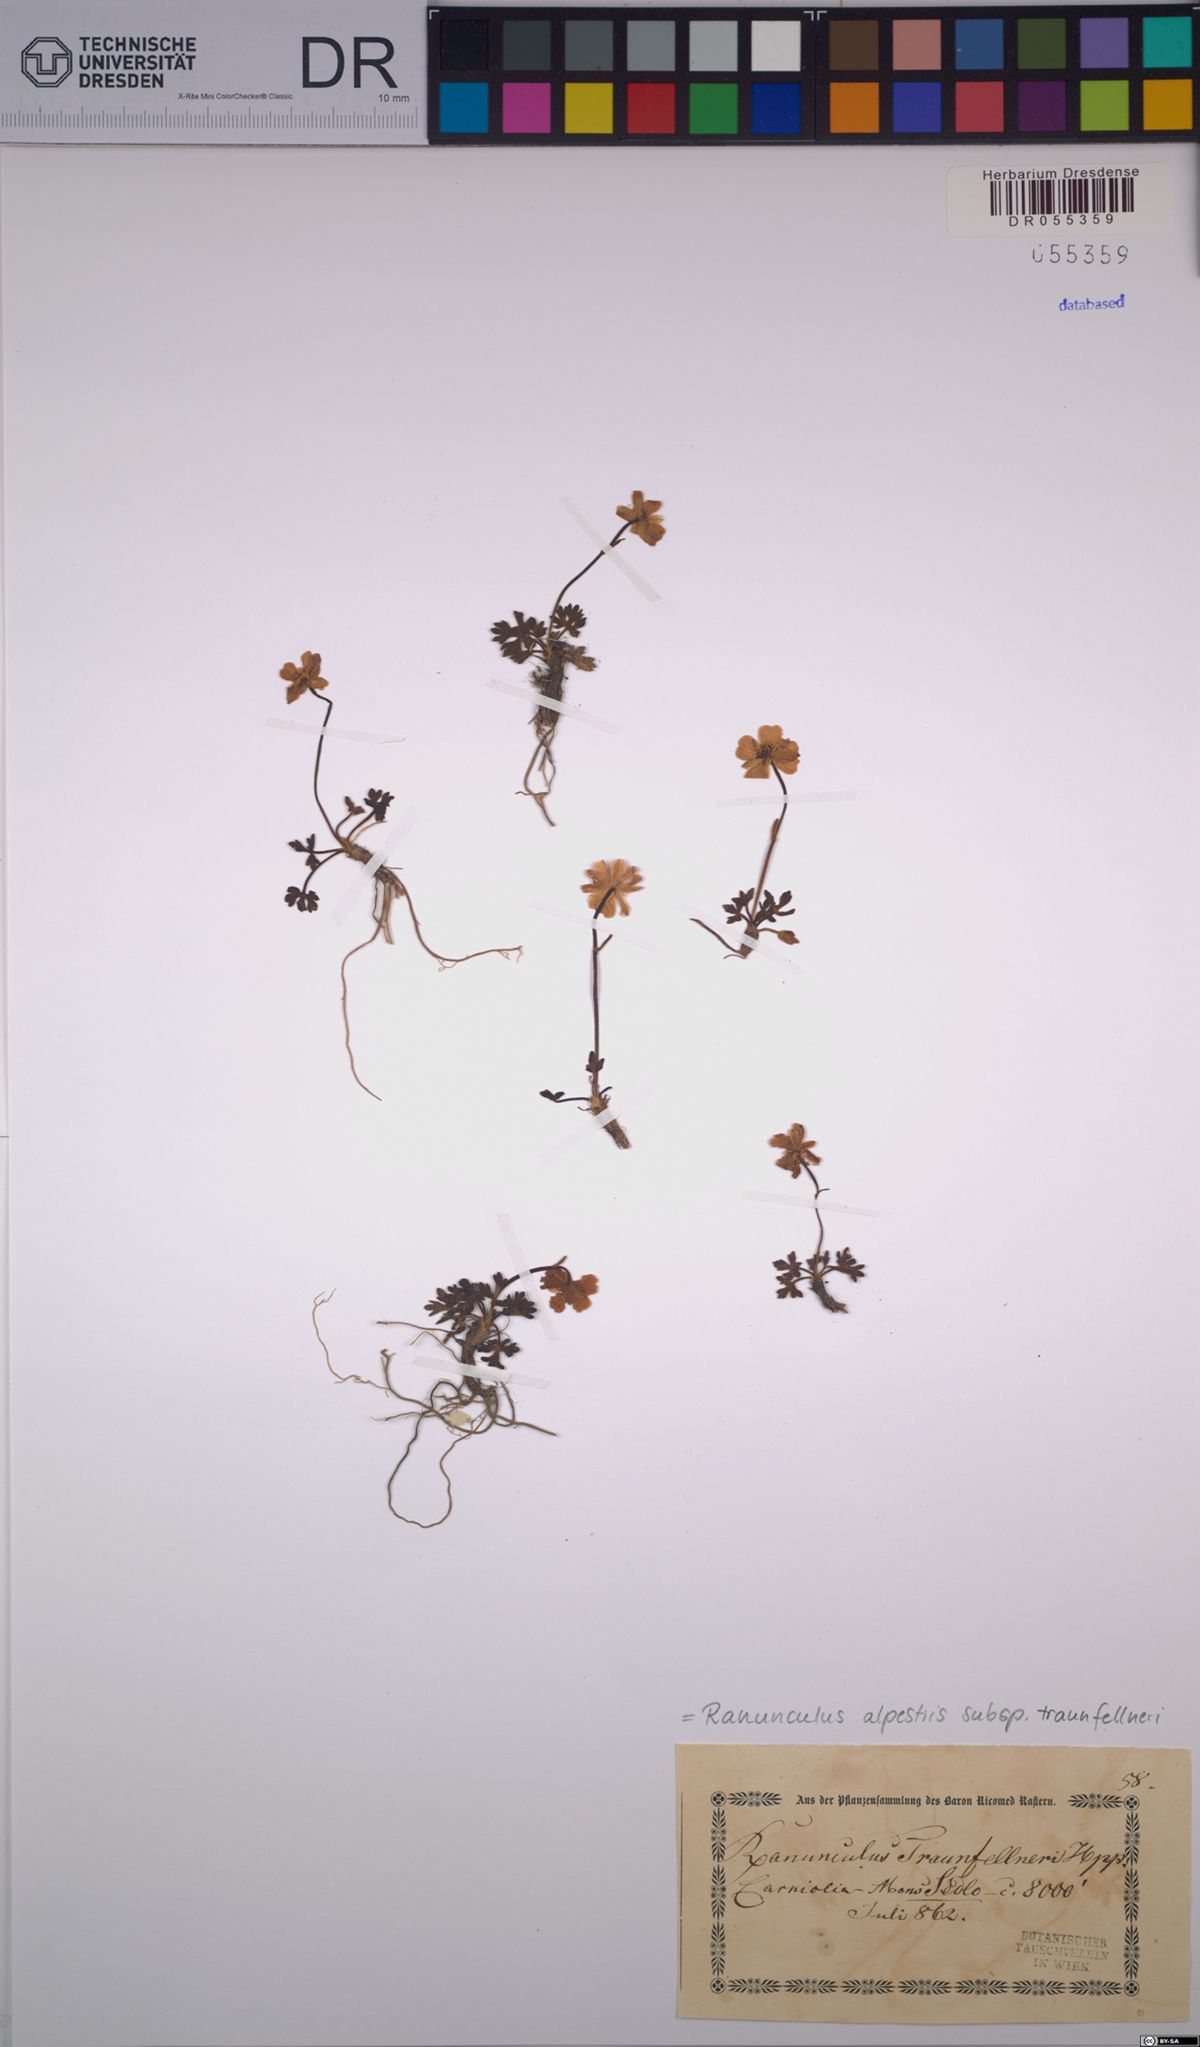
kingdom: Plantae
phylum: Tracheophyta
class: Magnoliopsida
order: Ranunculales
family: Ranunculaceae
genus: Ranunculus
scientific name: Ranunculus traunfellneri
